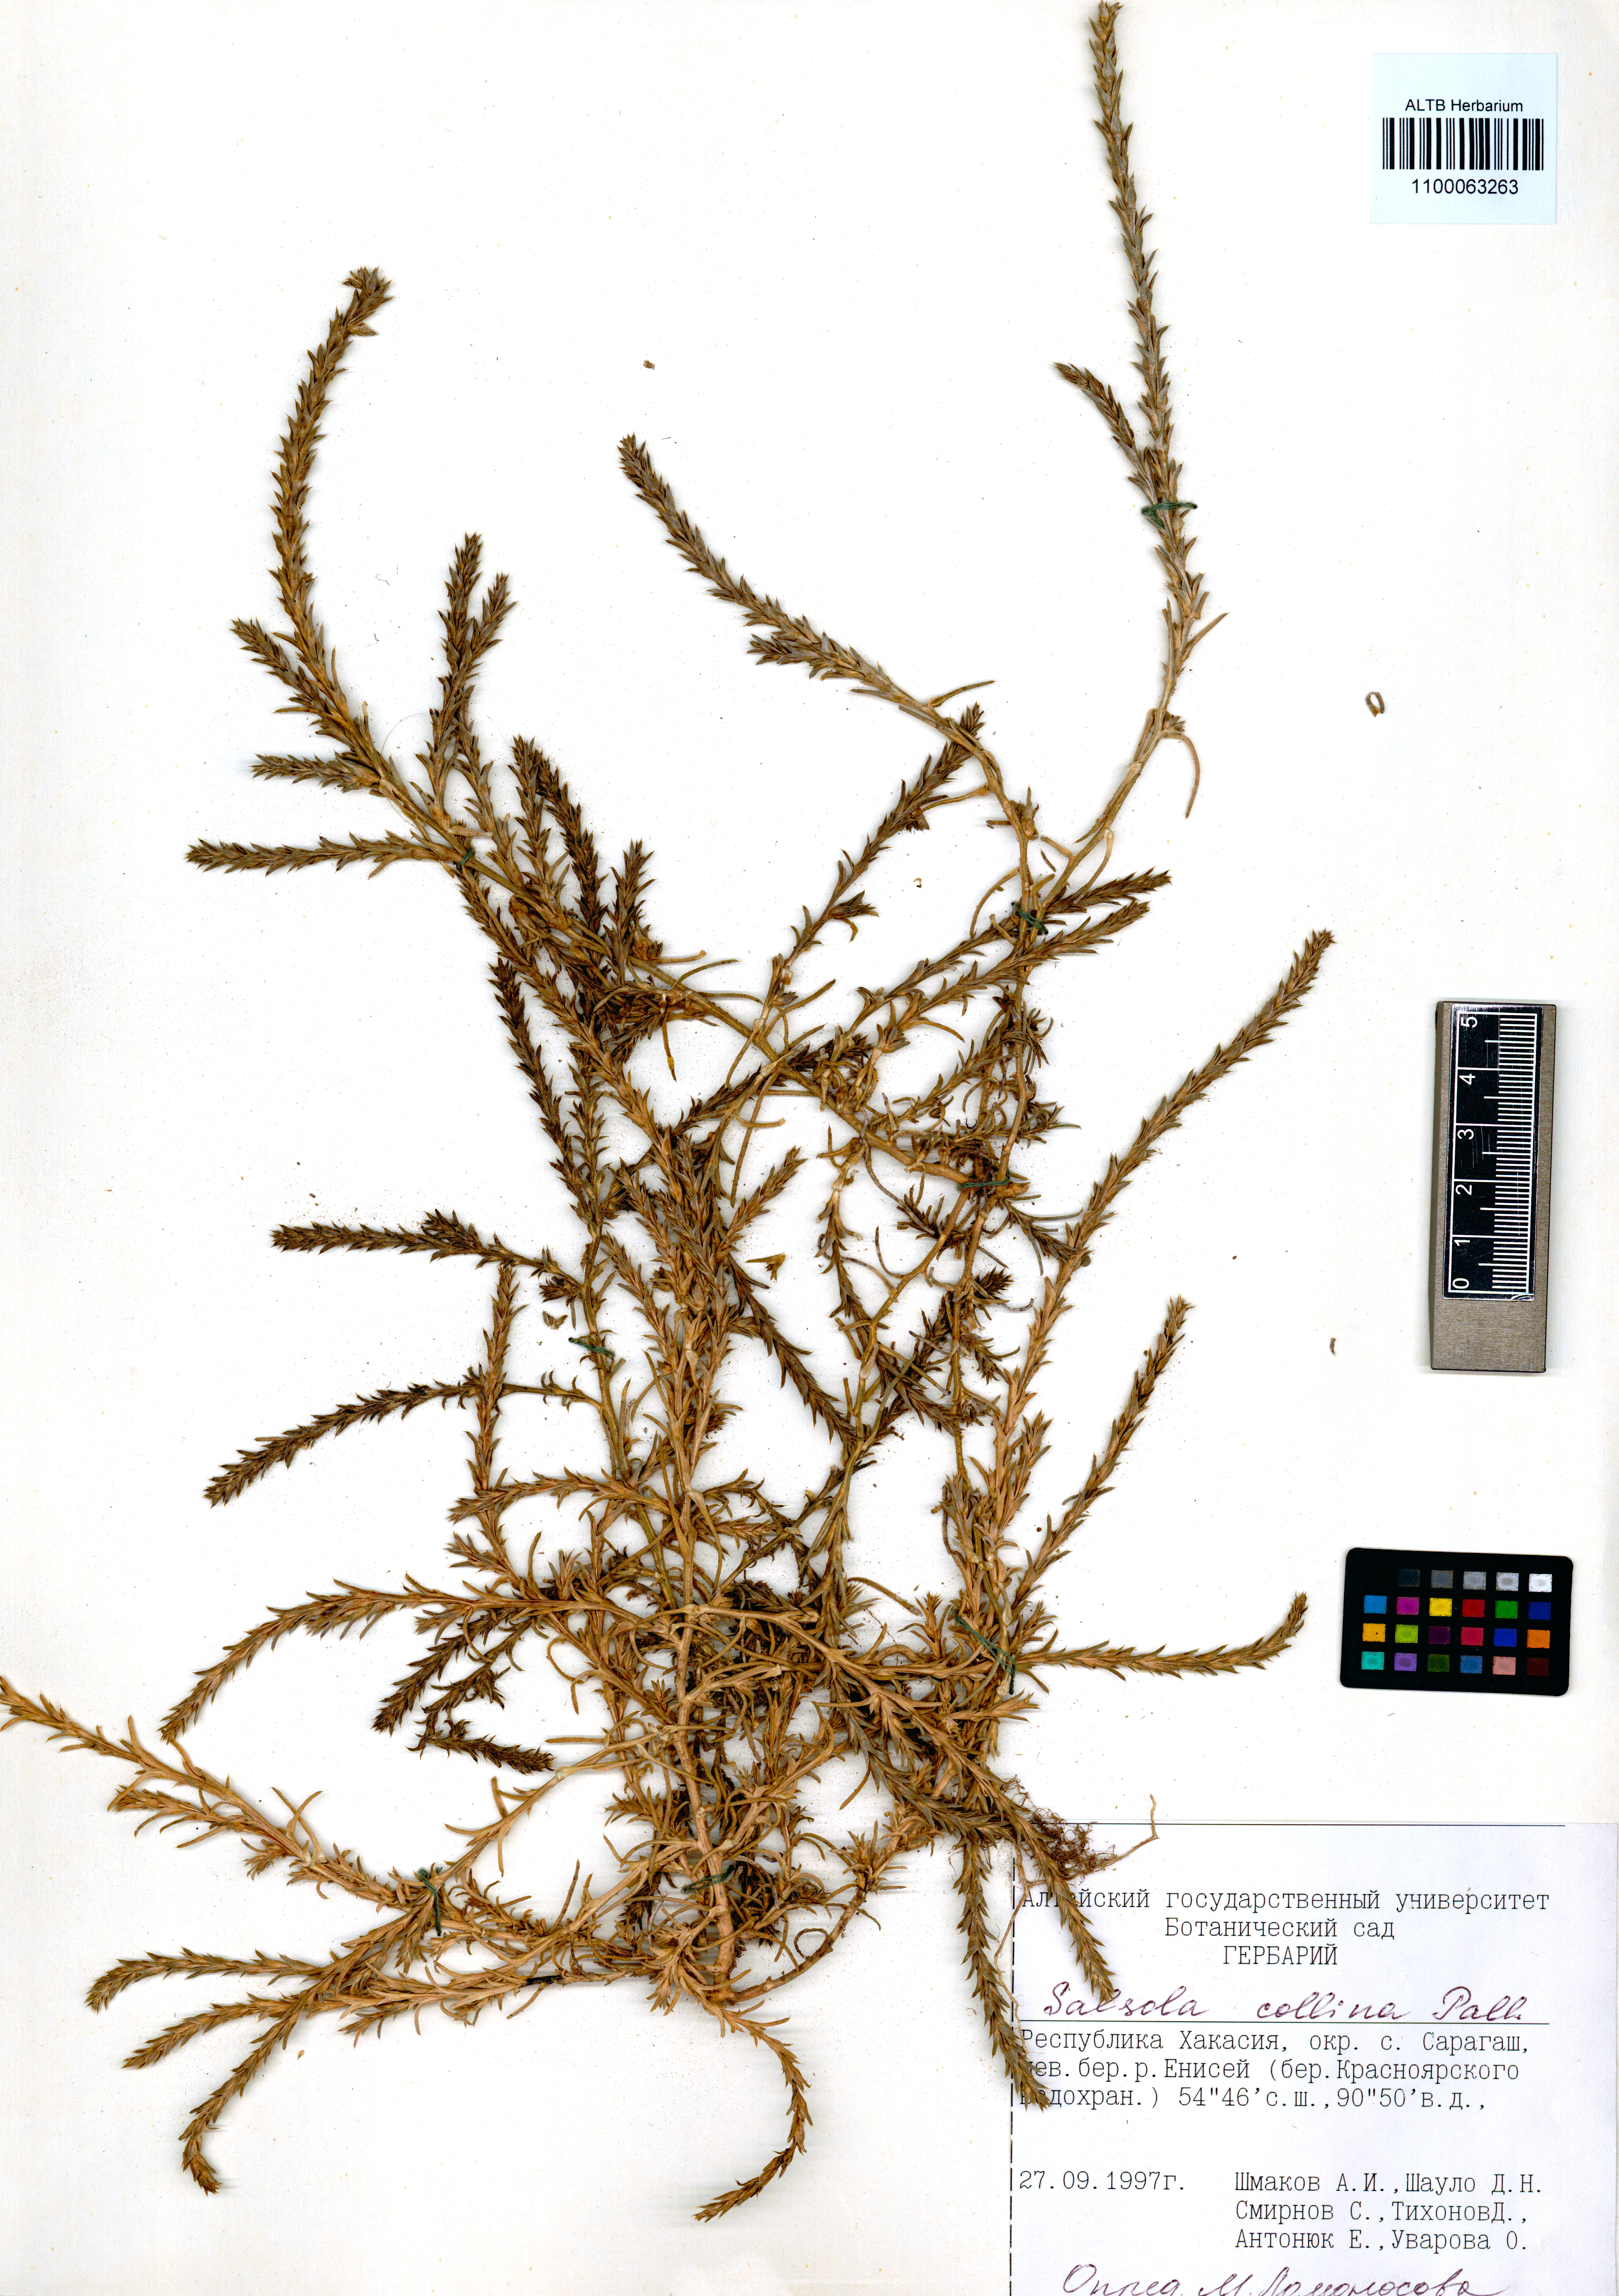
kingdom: Plantae
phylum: Tracheophyta
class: Magnoliopsida
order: Caryophyllales
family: Amaranthaceae
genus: Salsola
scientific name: Salsola collina
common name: Tumbleweed
